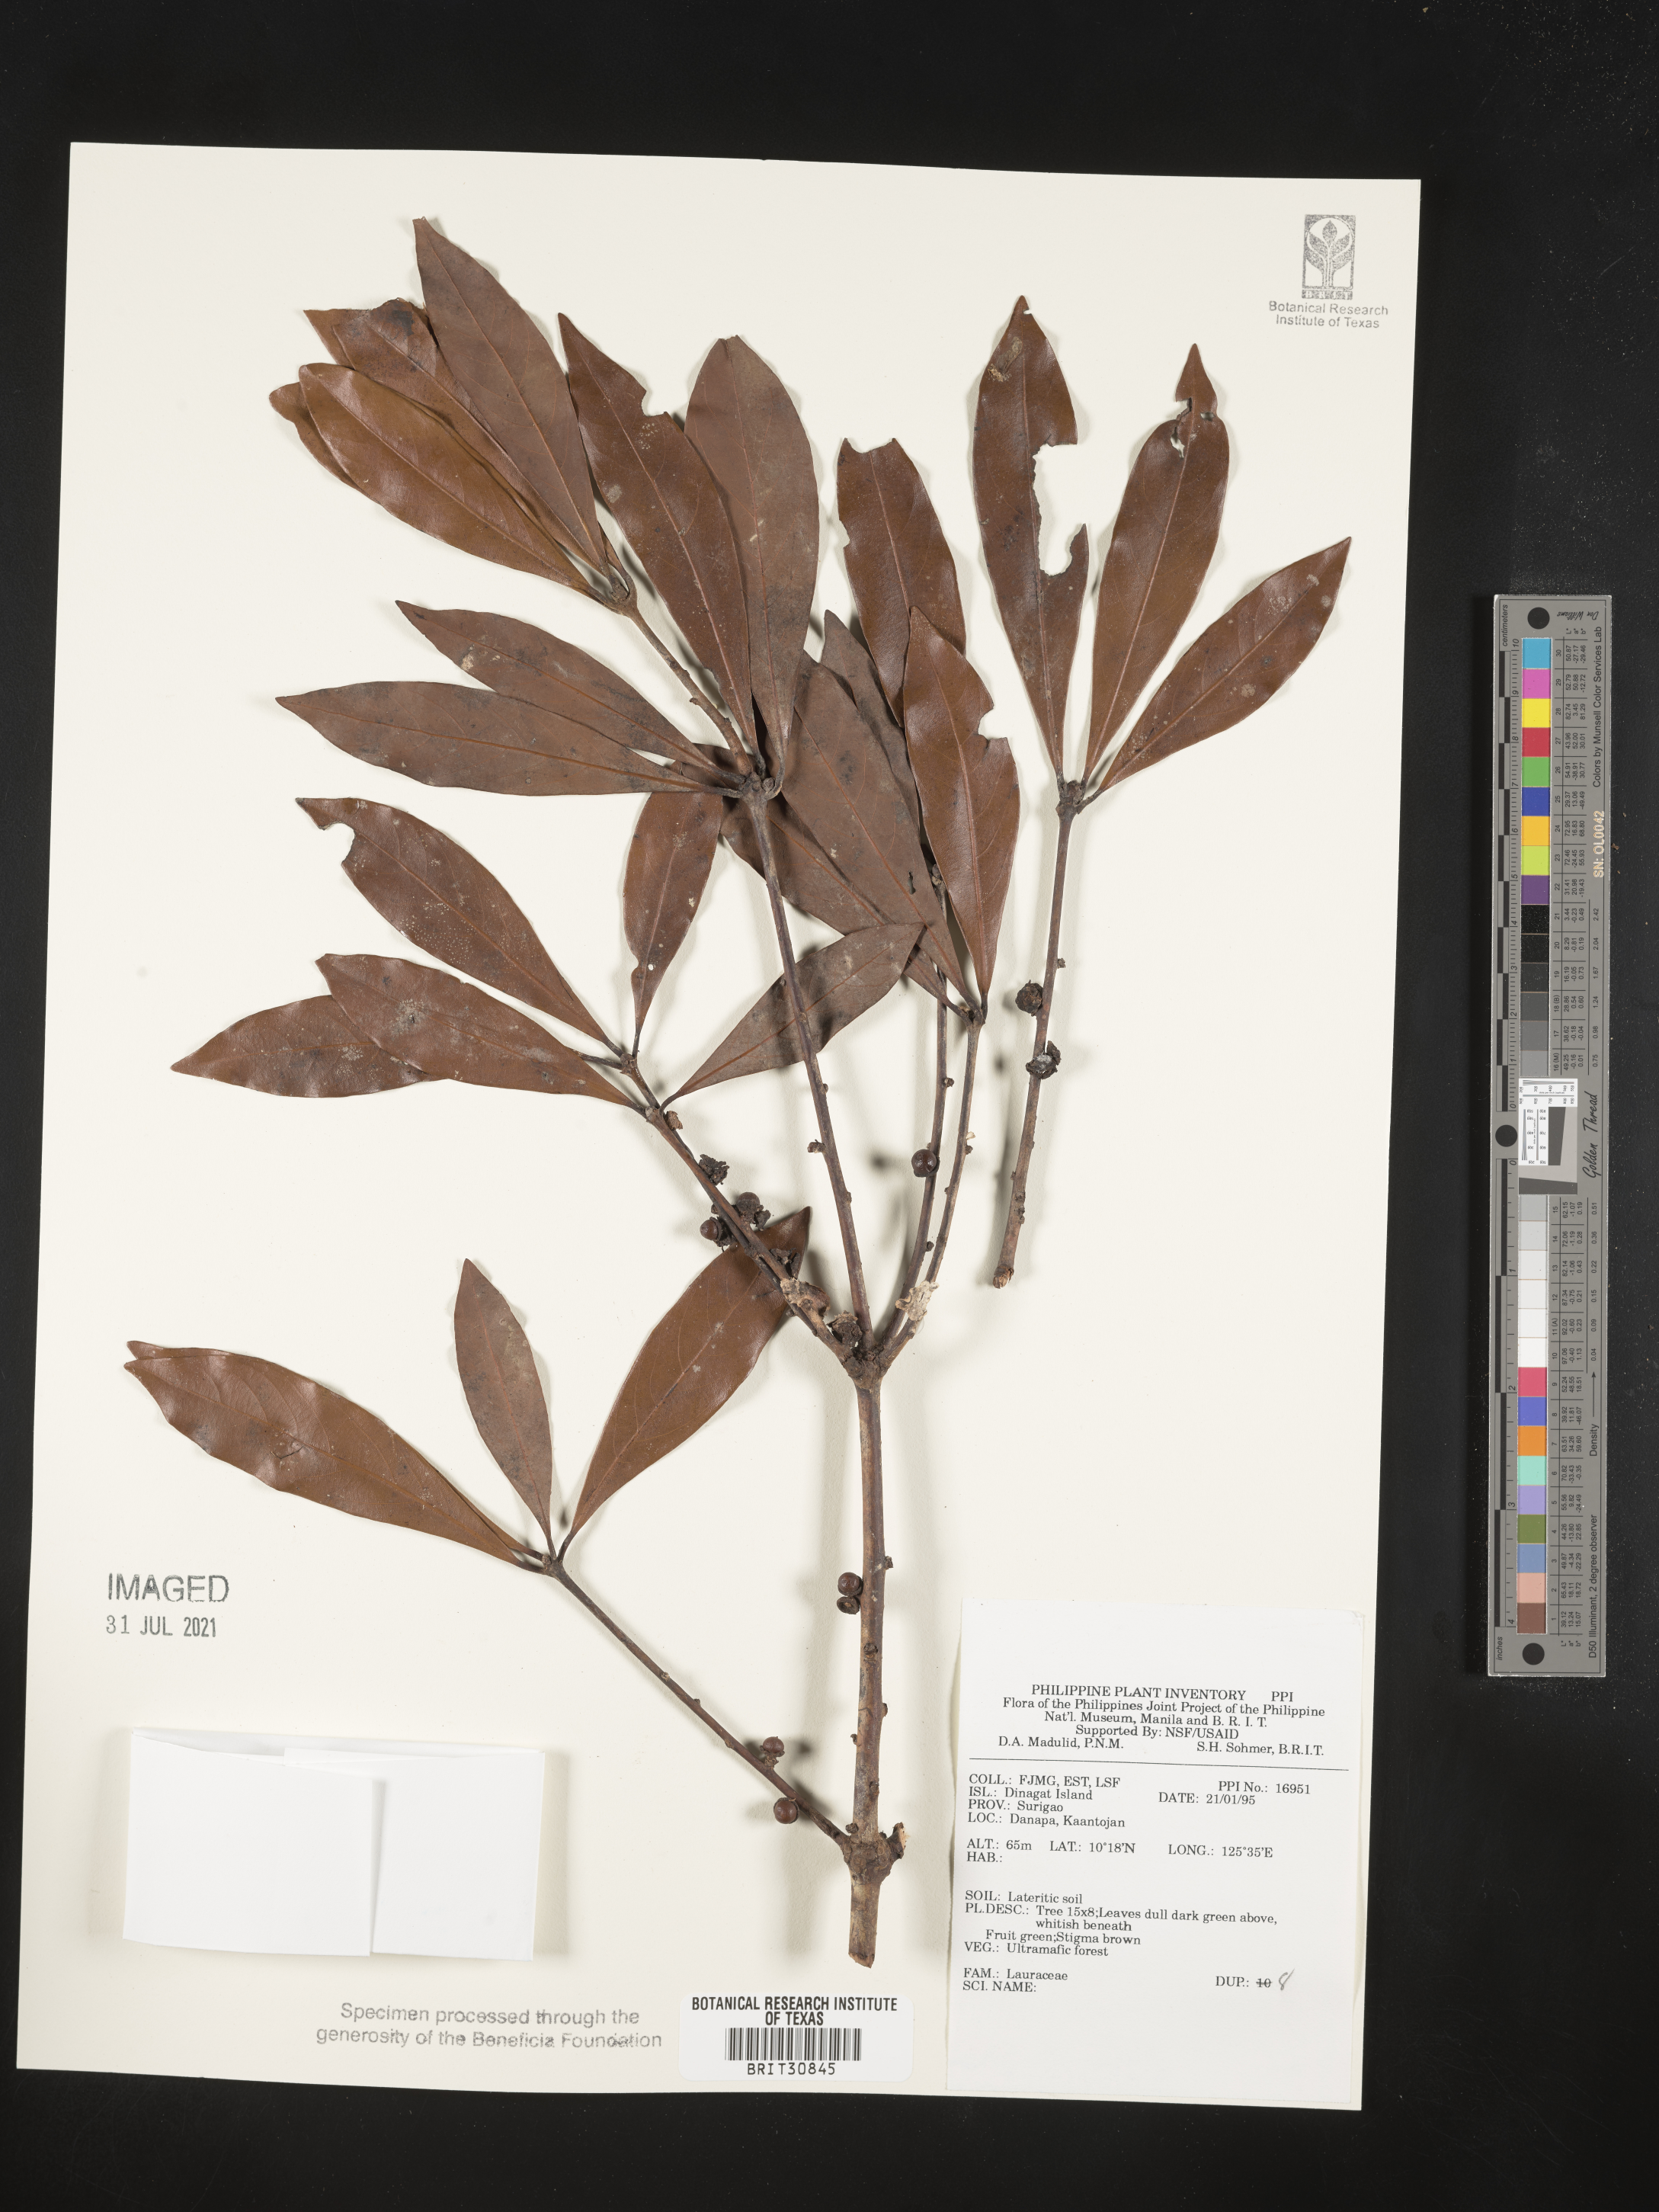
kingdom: Plantae
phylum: Tracheophyta
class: Magnoliopsida
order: Laurales
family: Lauraceae
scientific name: Lauraceae
